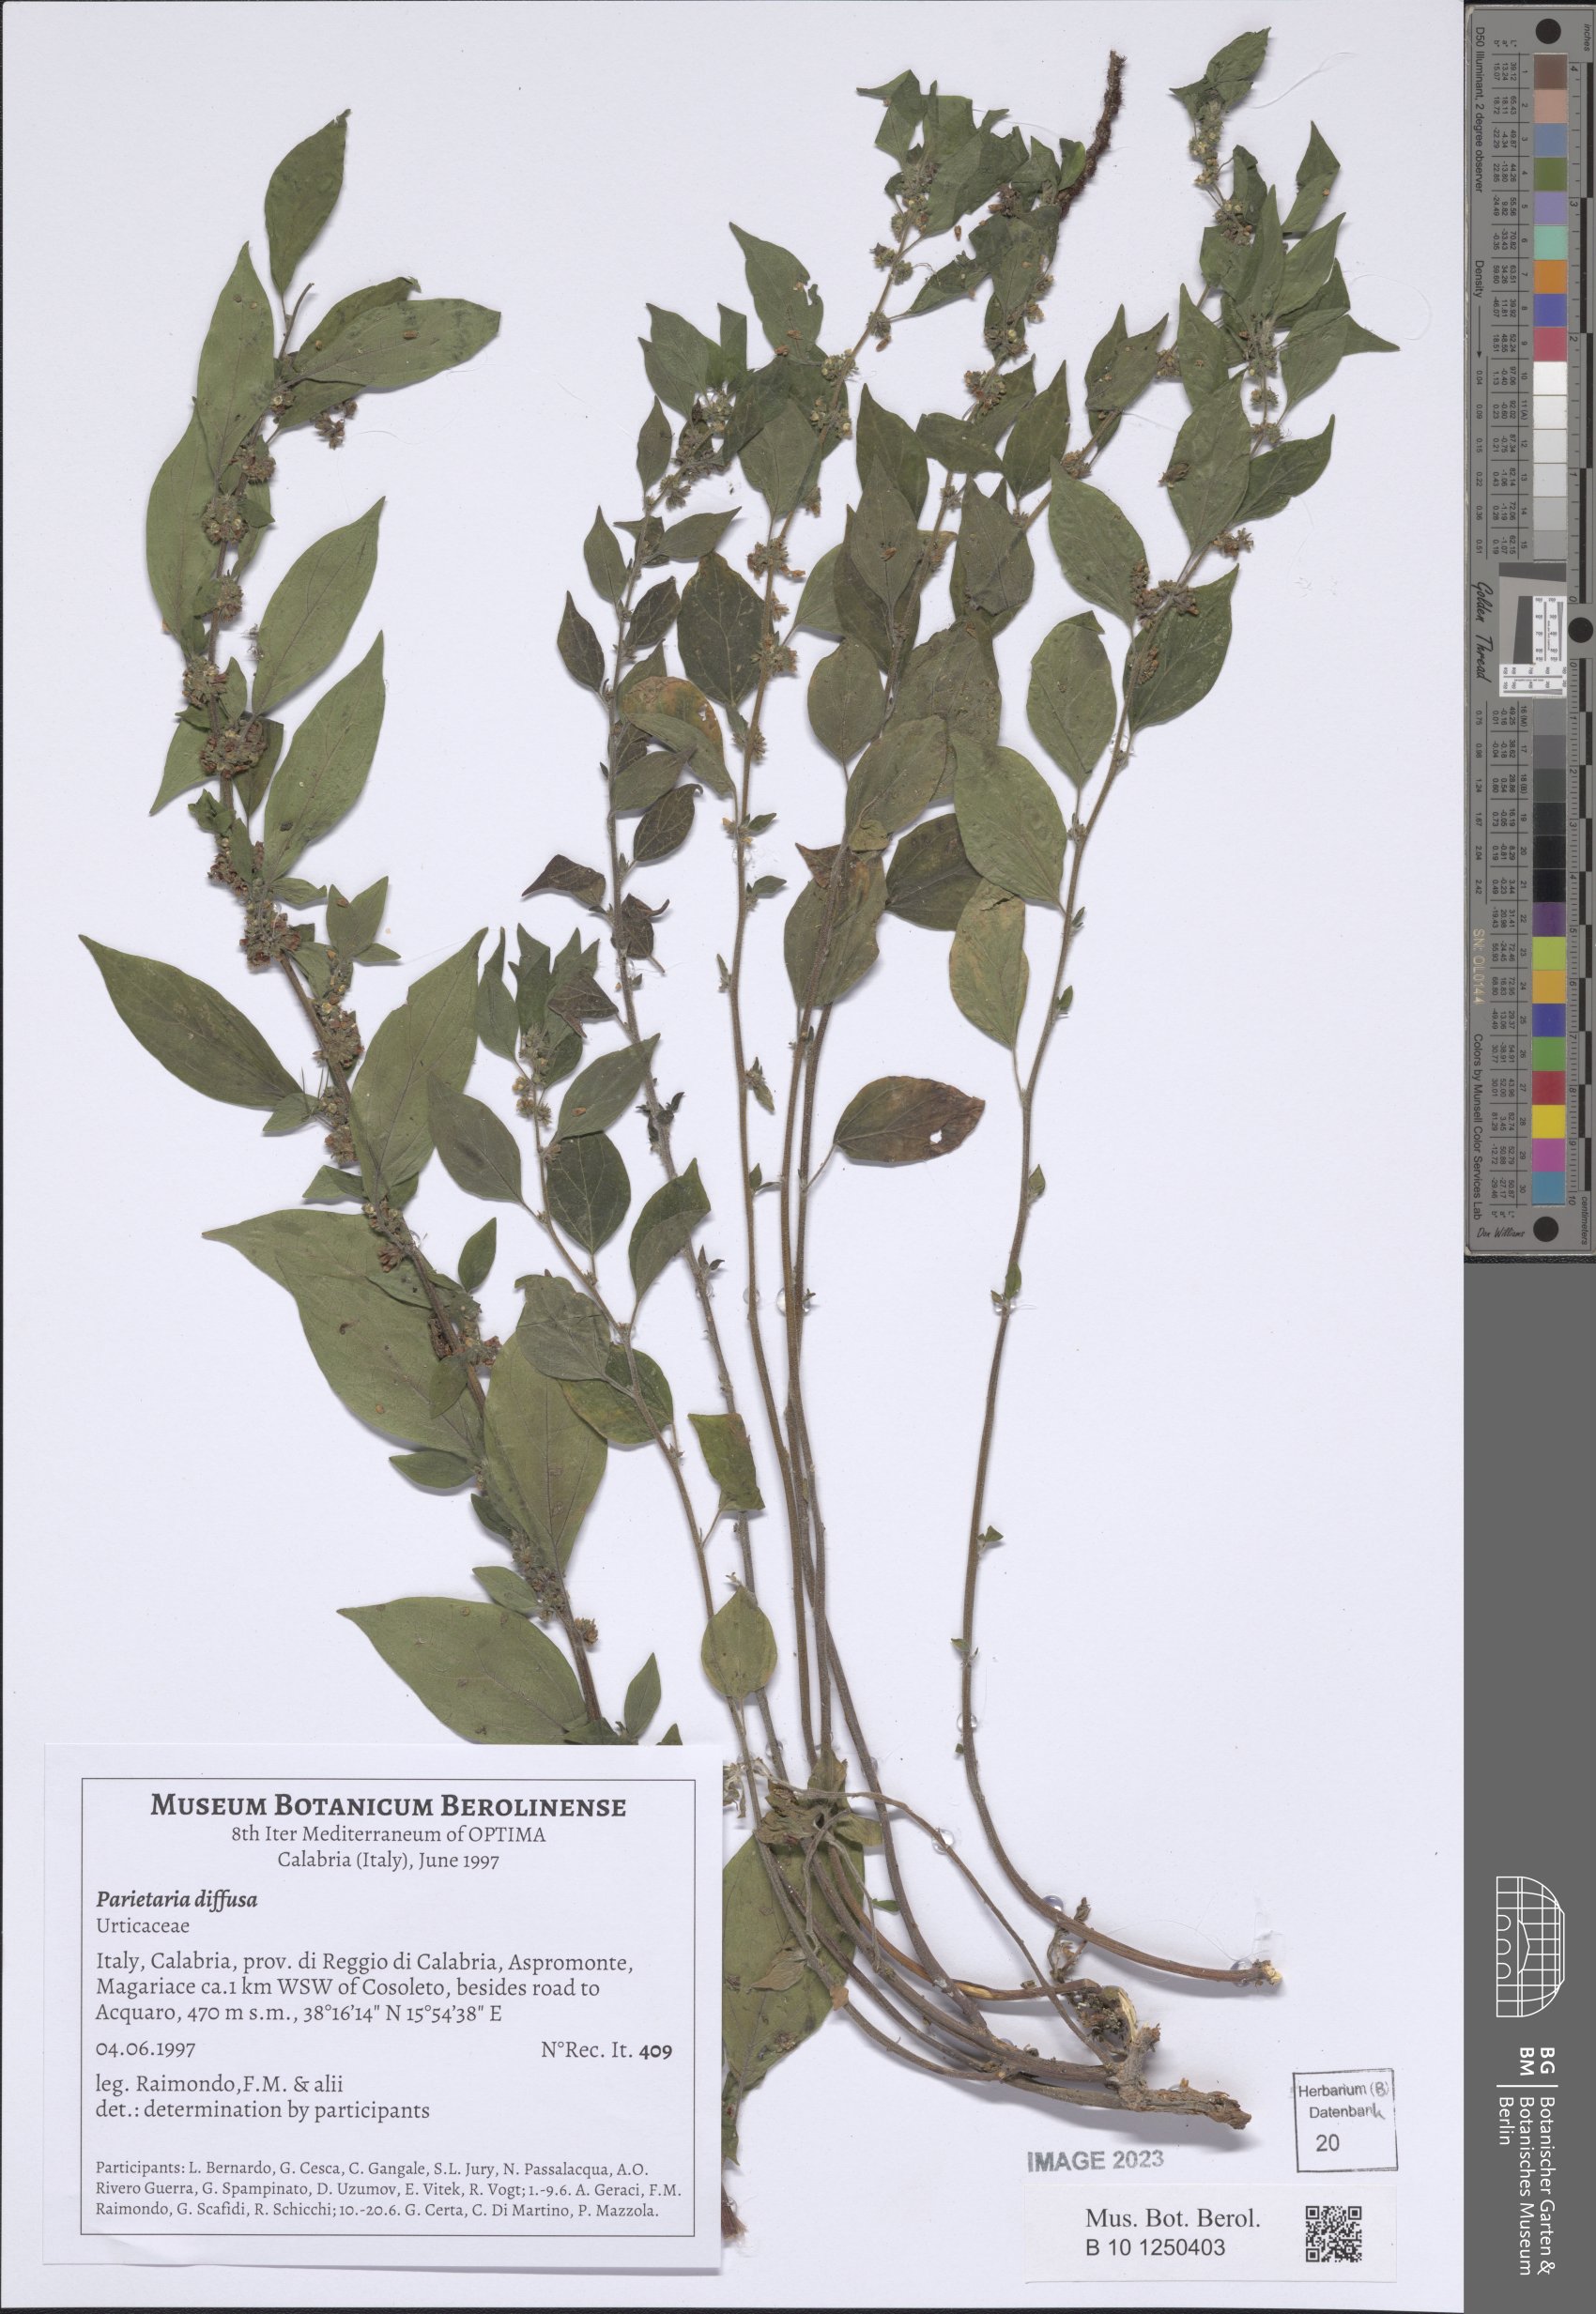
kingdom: Plantae
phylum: Tracheophyta
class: Magnoliopsida
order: Rosales
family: Urticaceae
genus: Parietaria
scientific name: Parietaria judaica
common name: Pellitory-of-the-wall
